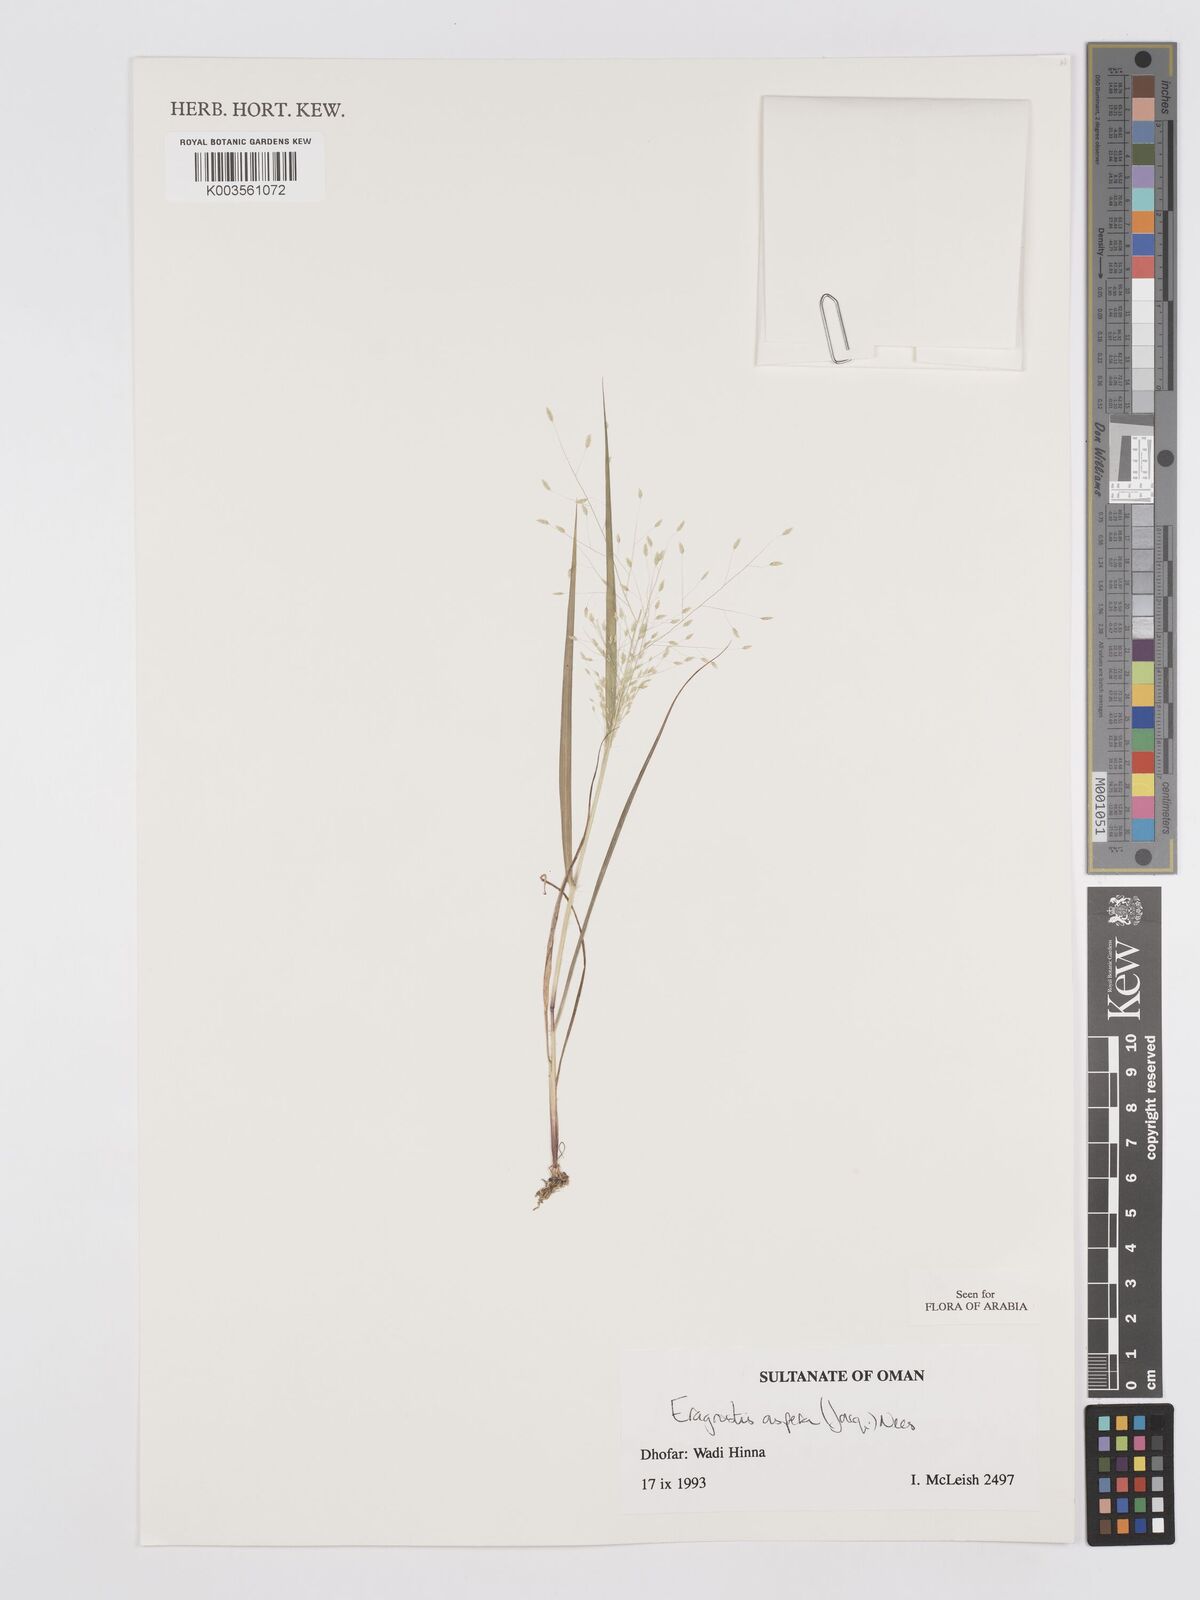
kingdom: Plantae
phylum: Tracheophyta
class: Liliopsida
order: Poales
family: Poaceae
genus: Eragrostis
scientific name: Eragrostis aspera
